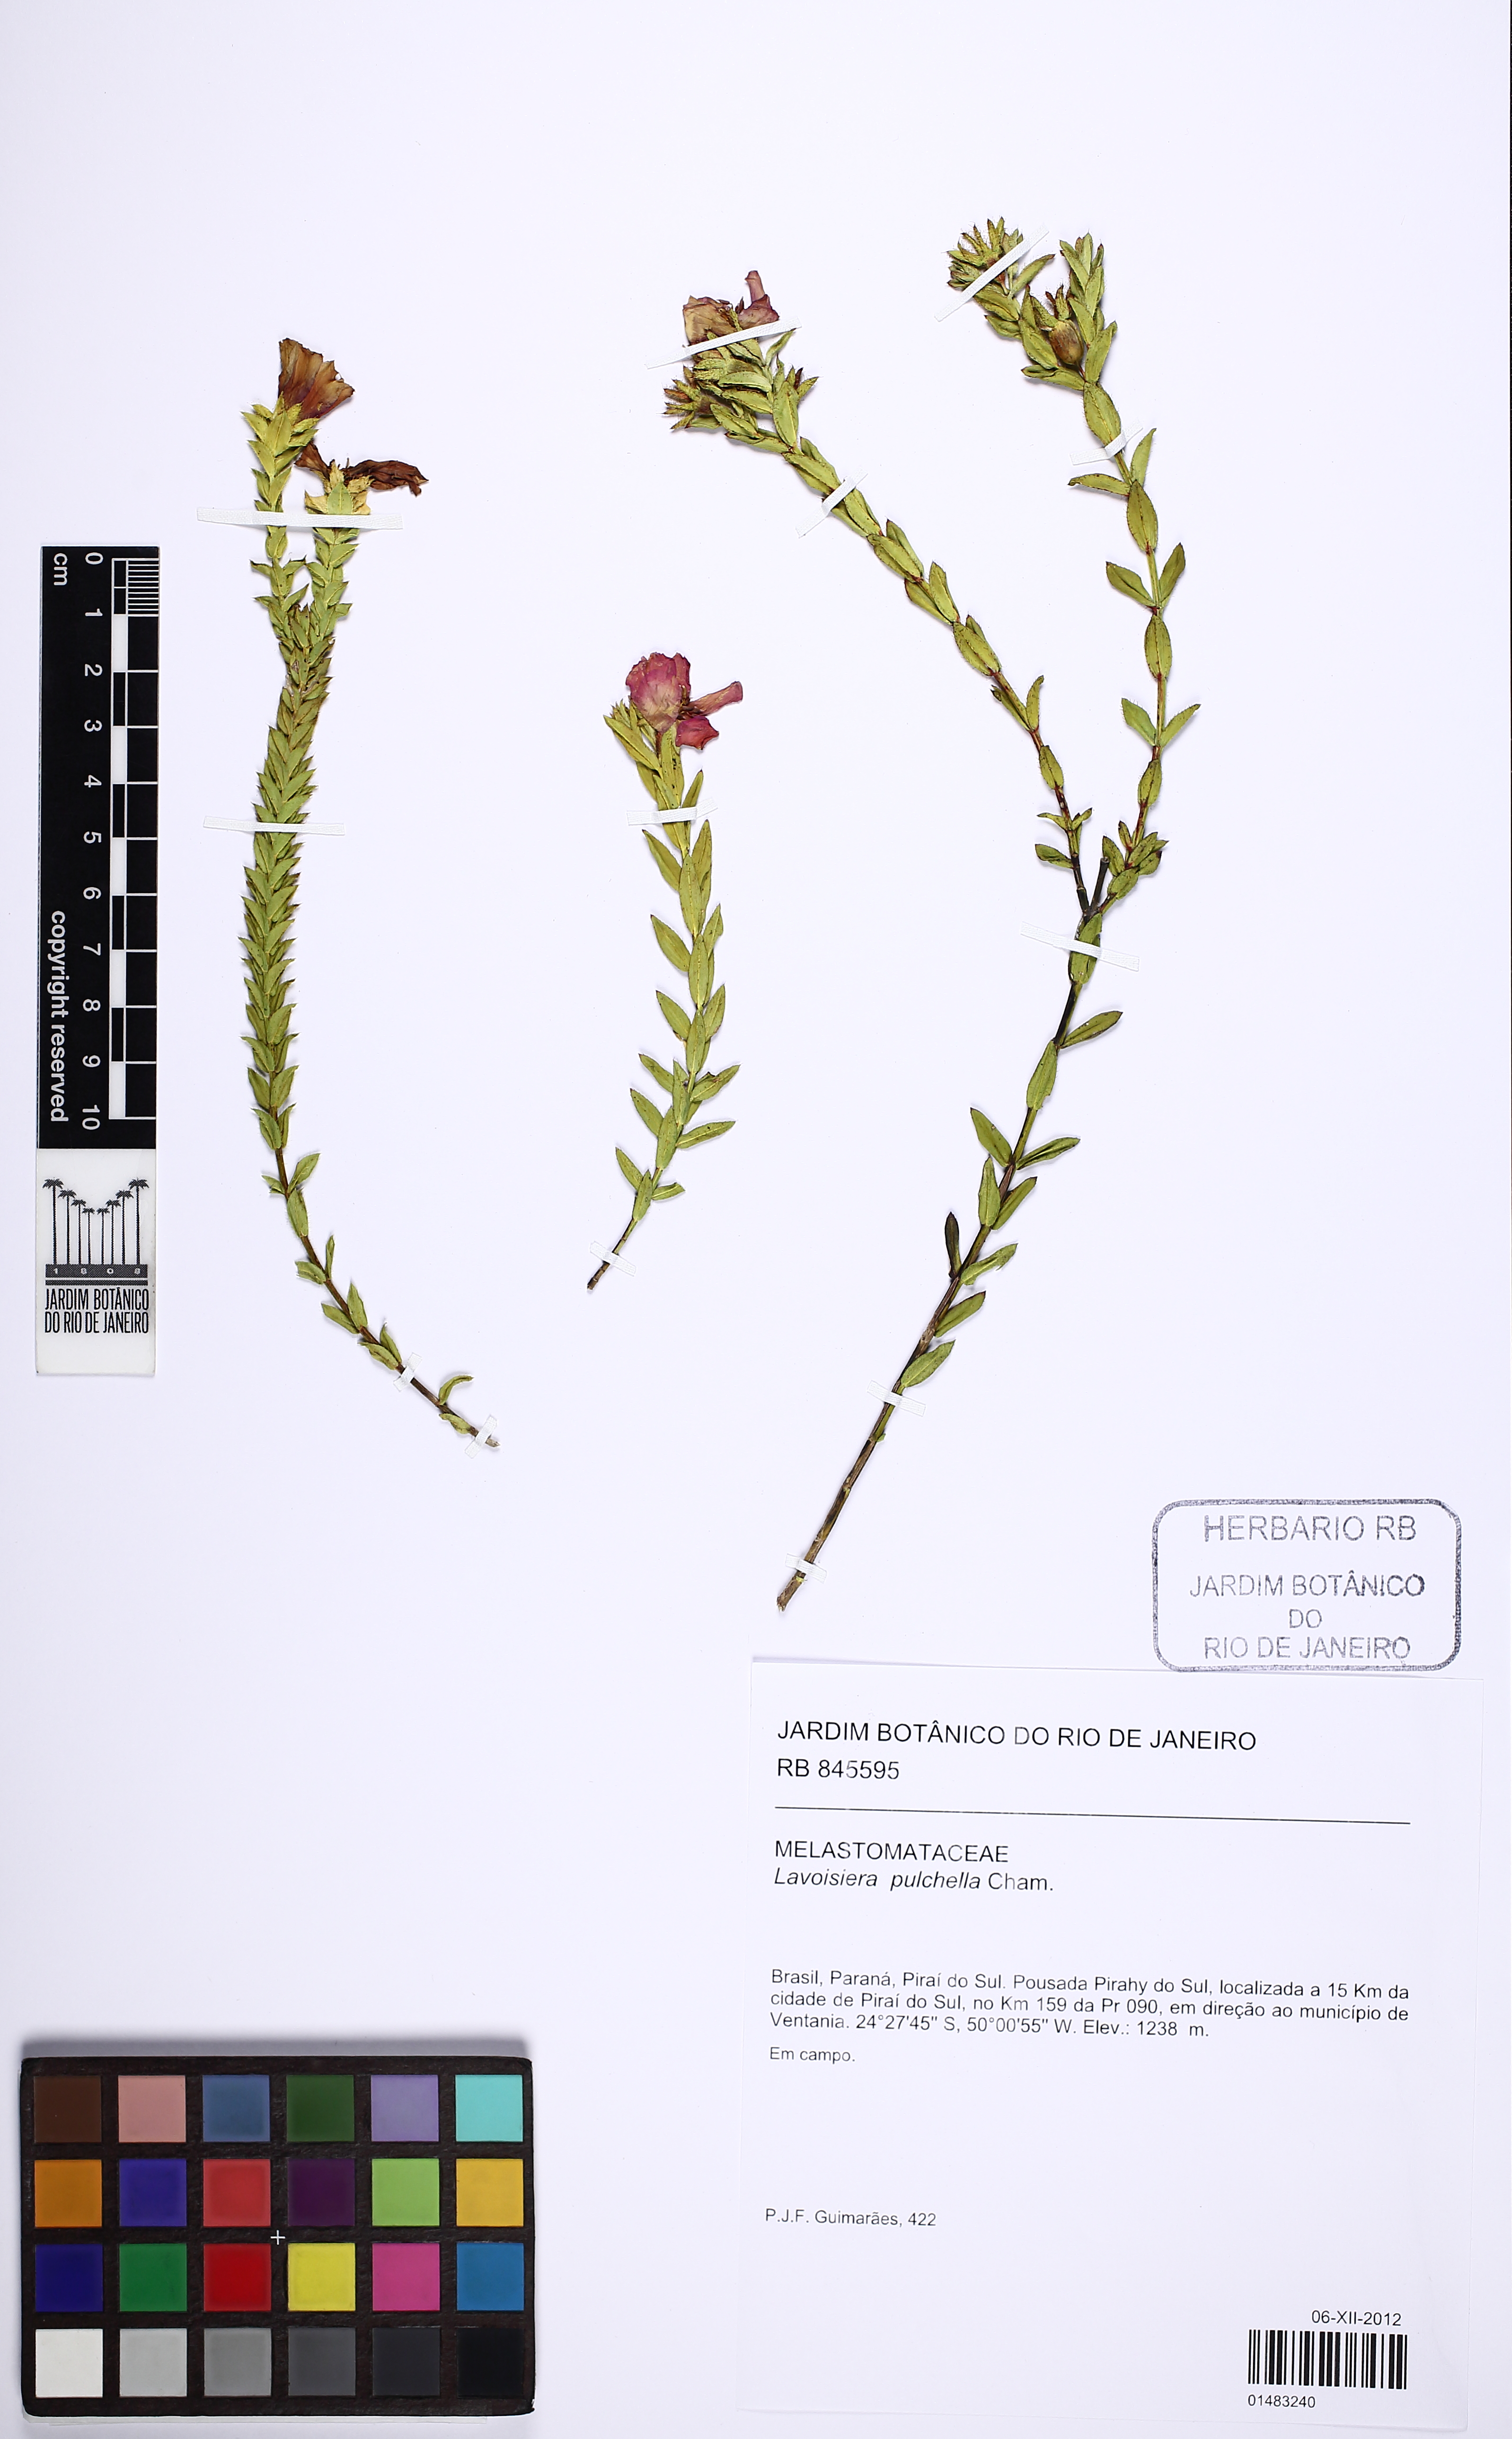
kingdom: Plantae
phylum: Tracheophyta
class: Magnoliopsida
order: Myrtales
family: Melastomataceae
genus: Microlicia
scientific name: Microlicia australis
